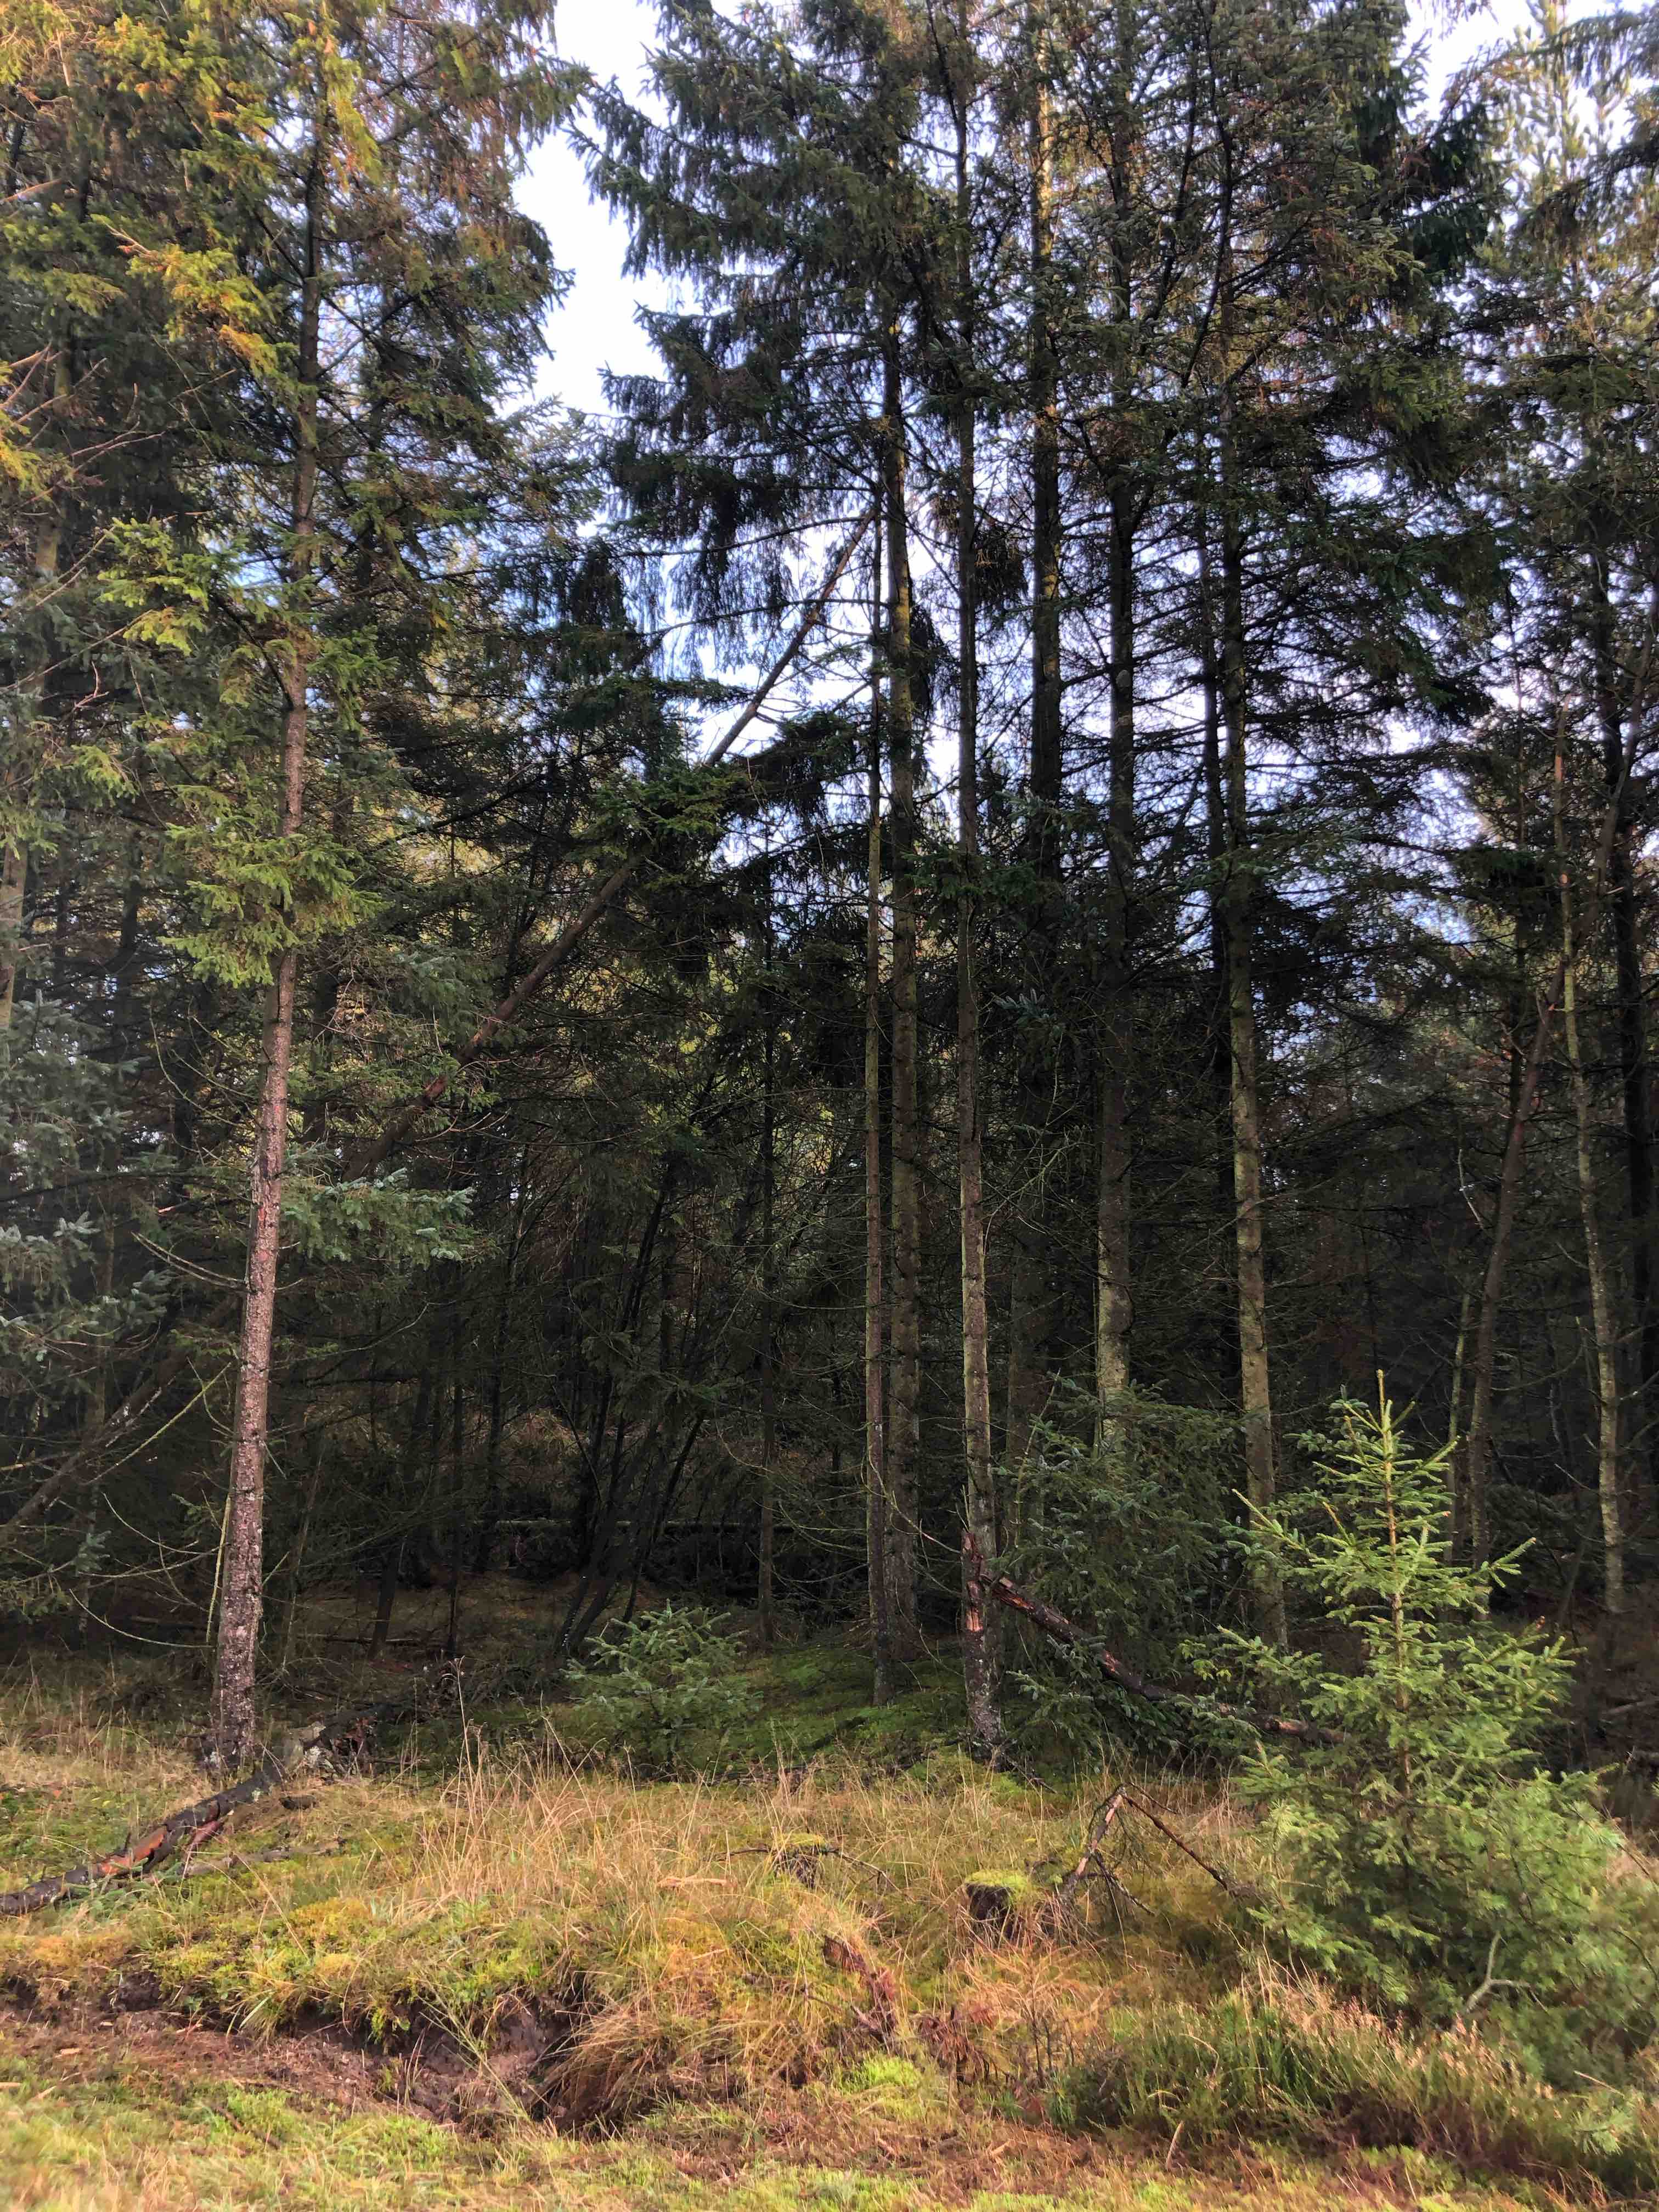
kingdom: Fungi
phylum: Basidiomycota
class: Agaricomycetes
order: Agaricales
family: Cortinariaceae
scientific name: Cortinariaceae
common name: slørhatfamilien
